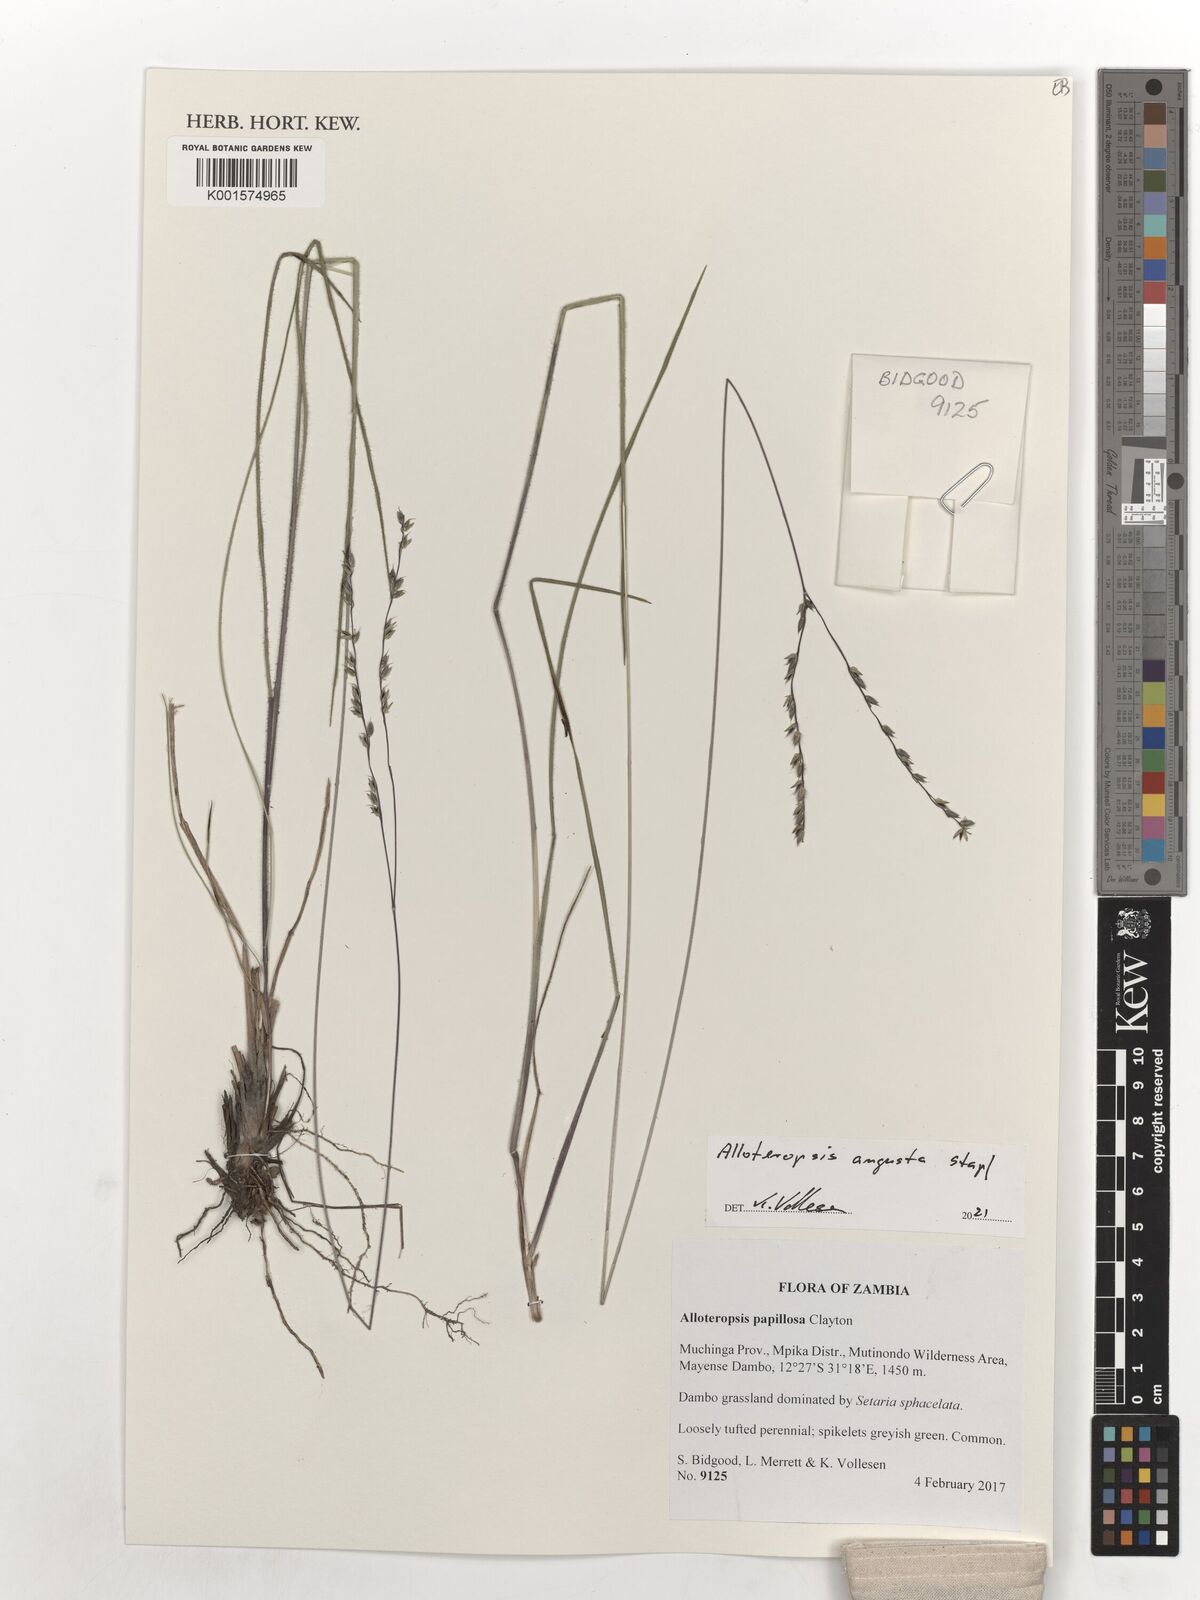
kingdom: Plantae
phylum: Tracheophyta
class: Liliopsida
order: Poales
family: Poaceae
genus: Alloteropsis
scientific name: Alloteropsis angusta
